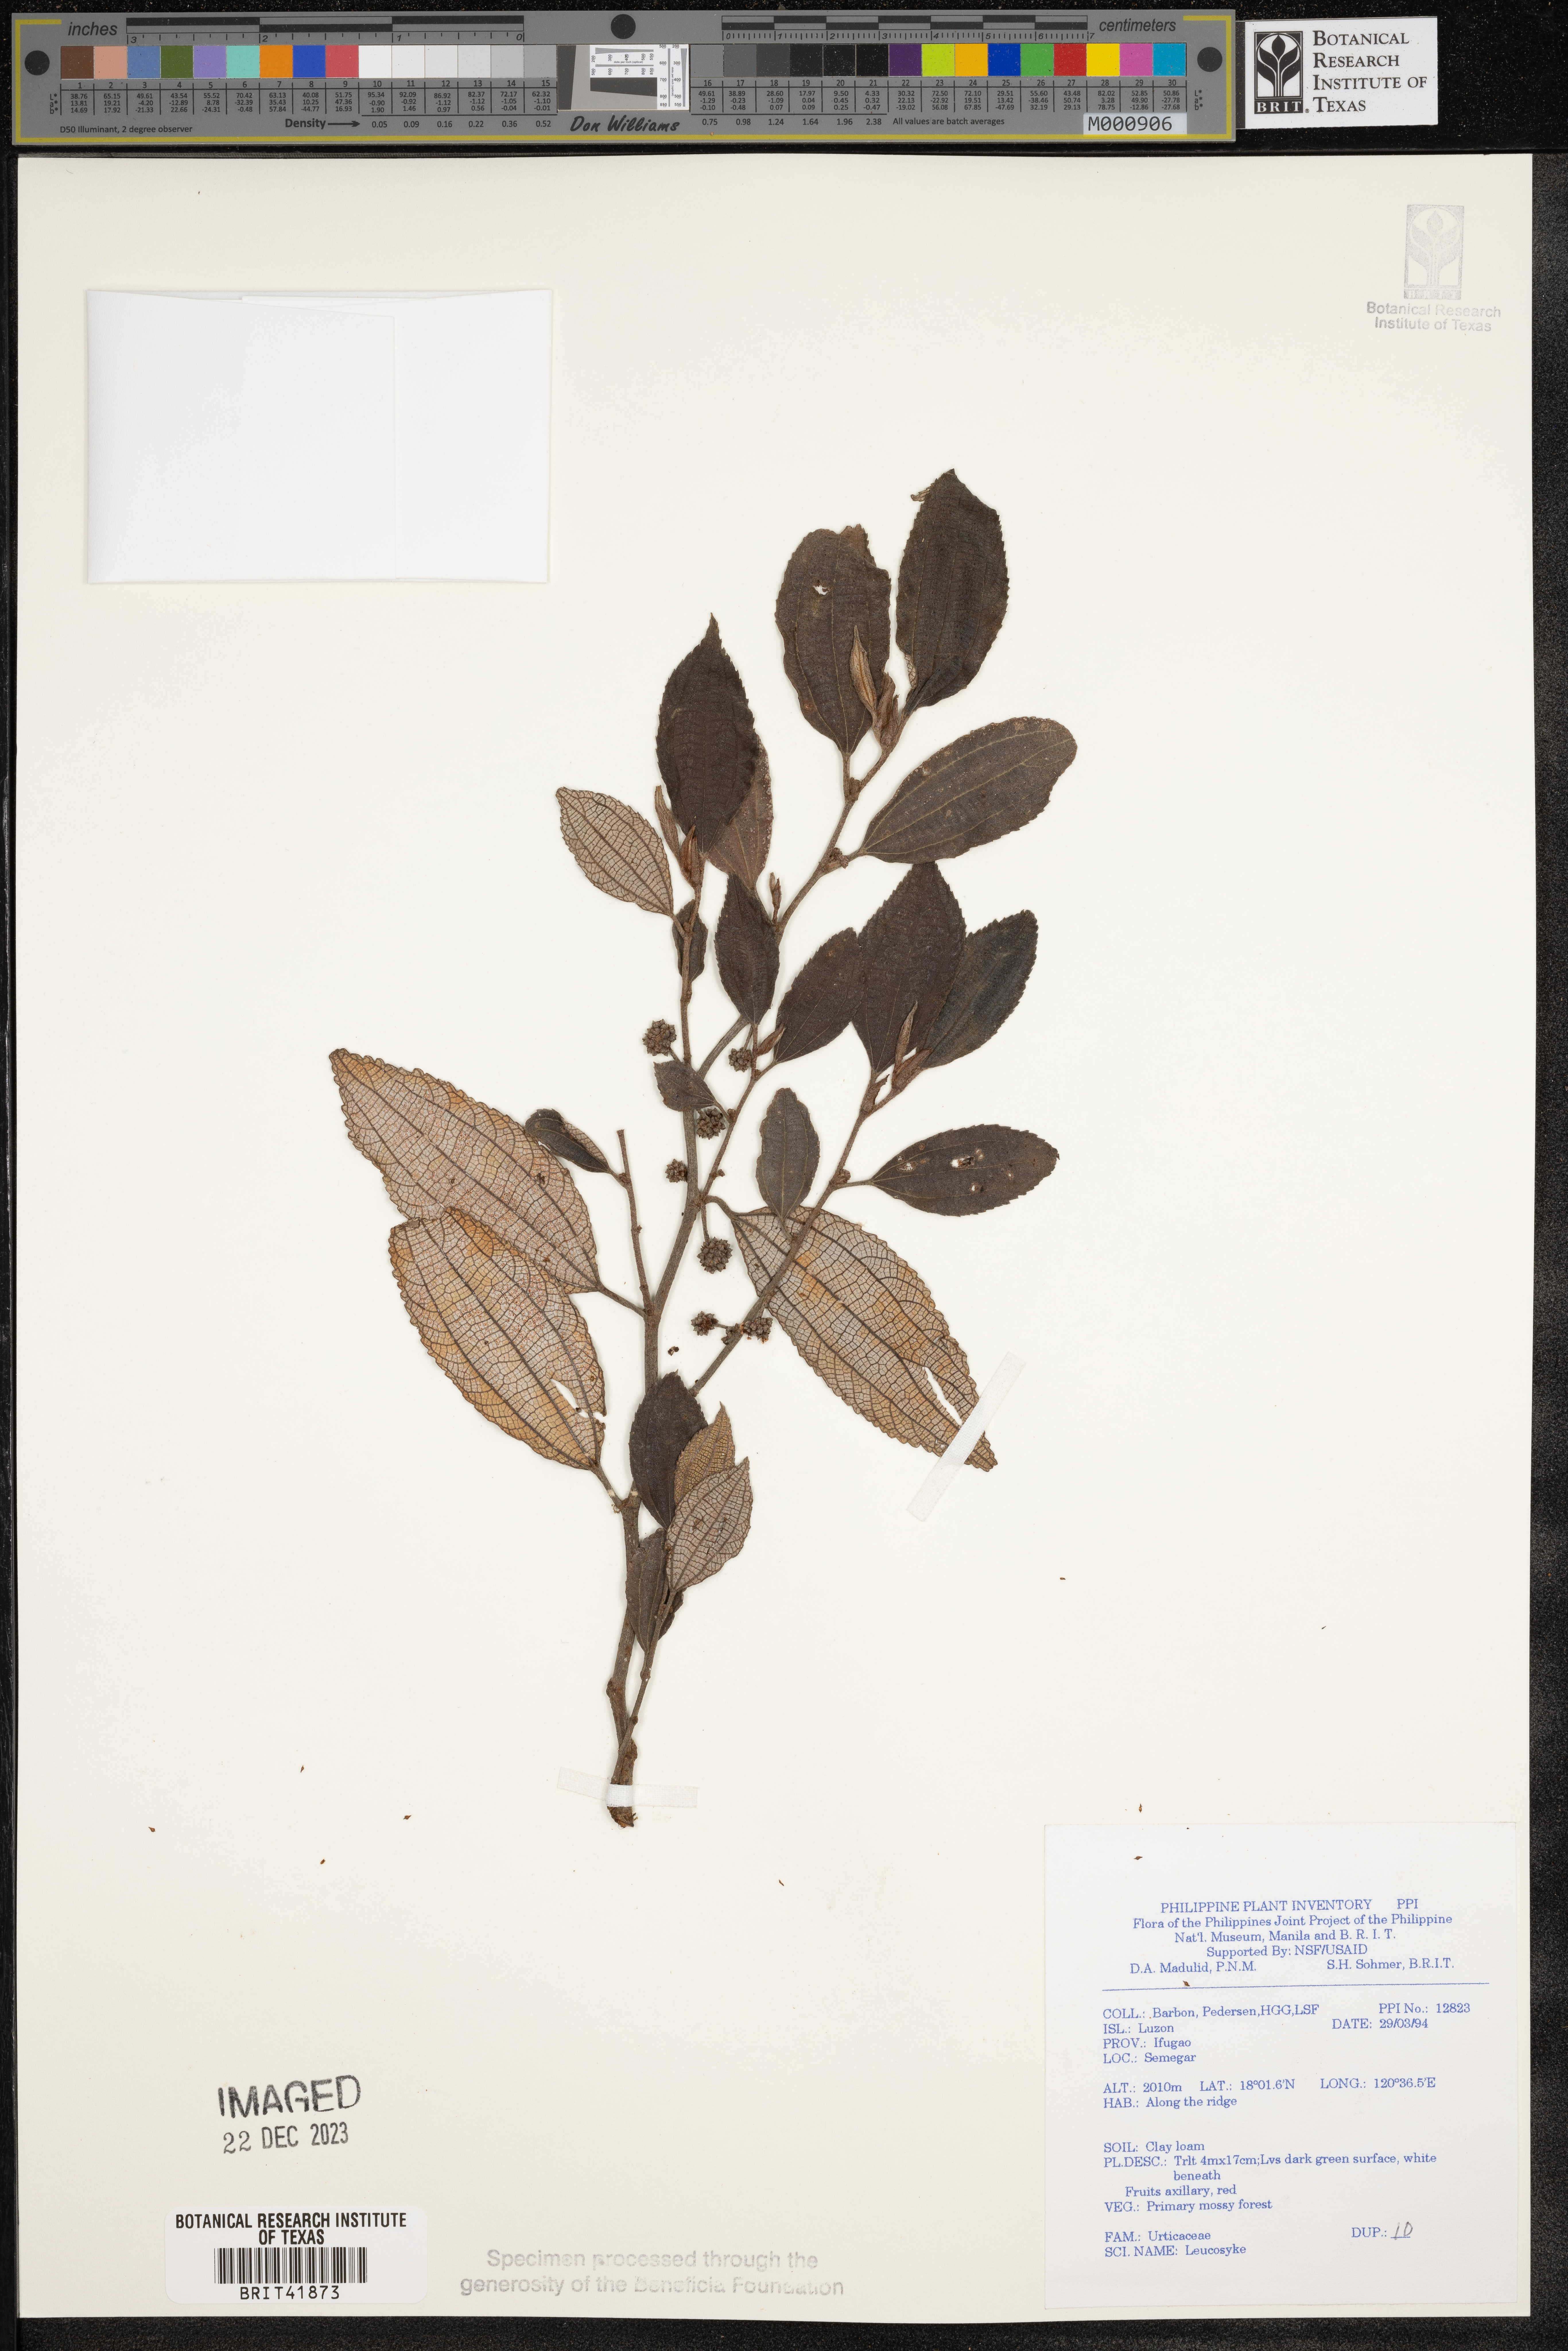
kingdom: Plantae
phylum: Tracheophyta
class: Magnoliopsida
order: Rosales
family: Urticaceae
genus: Leucosyke
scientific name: Leucosyke
